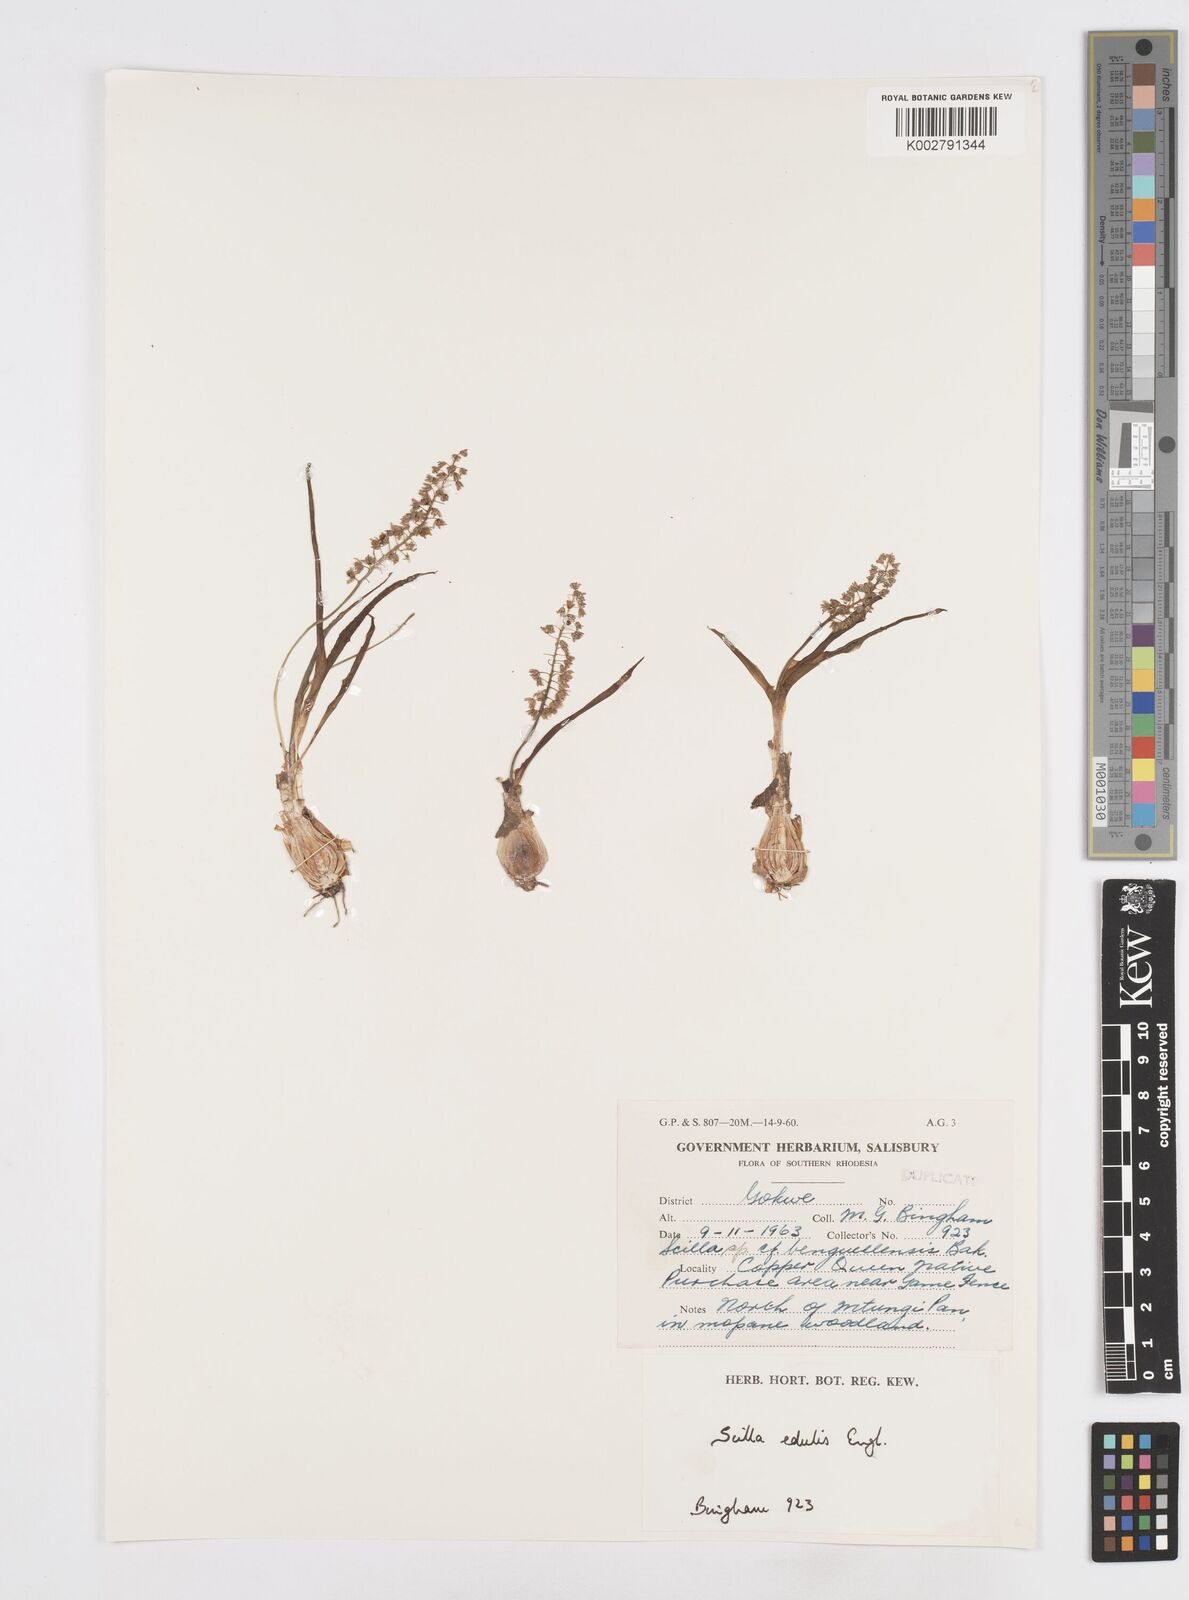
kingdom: Plantae
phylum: Tracheophyta
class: Liliopsida
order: Asparagales
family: Asparagaceae
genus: Ledebouria
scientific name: Ledebouria edulis
